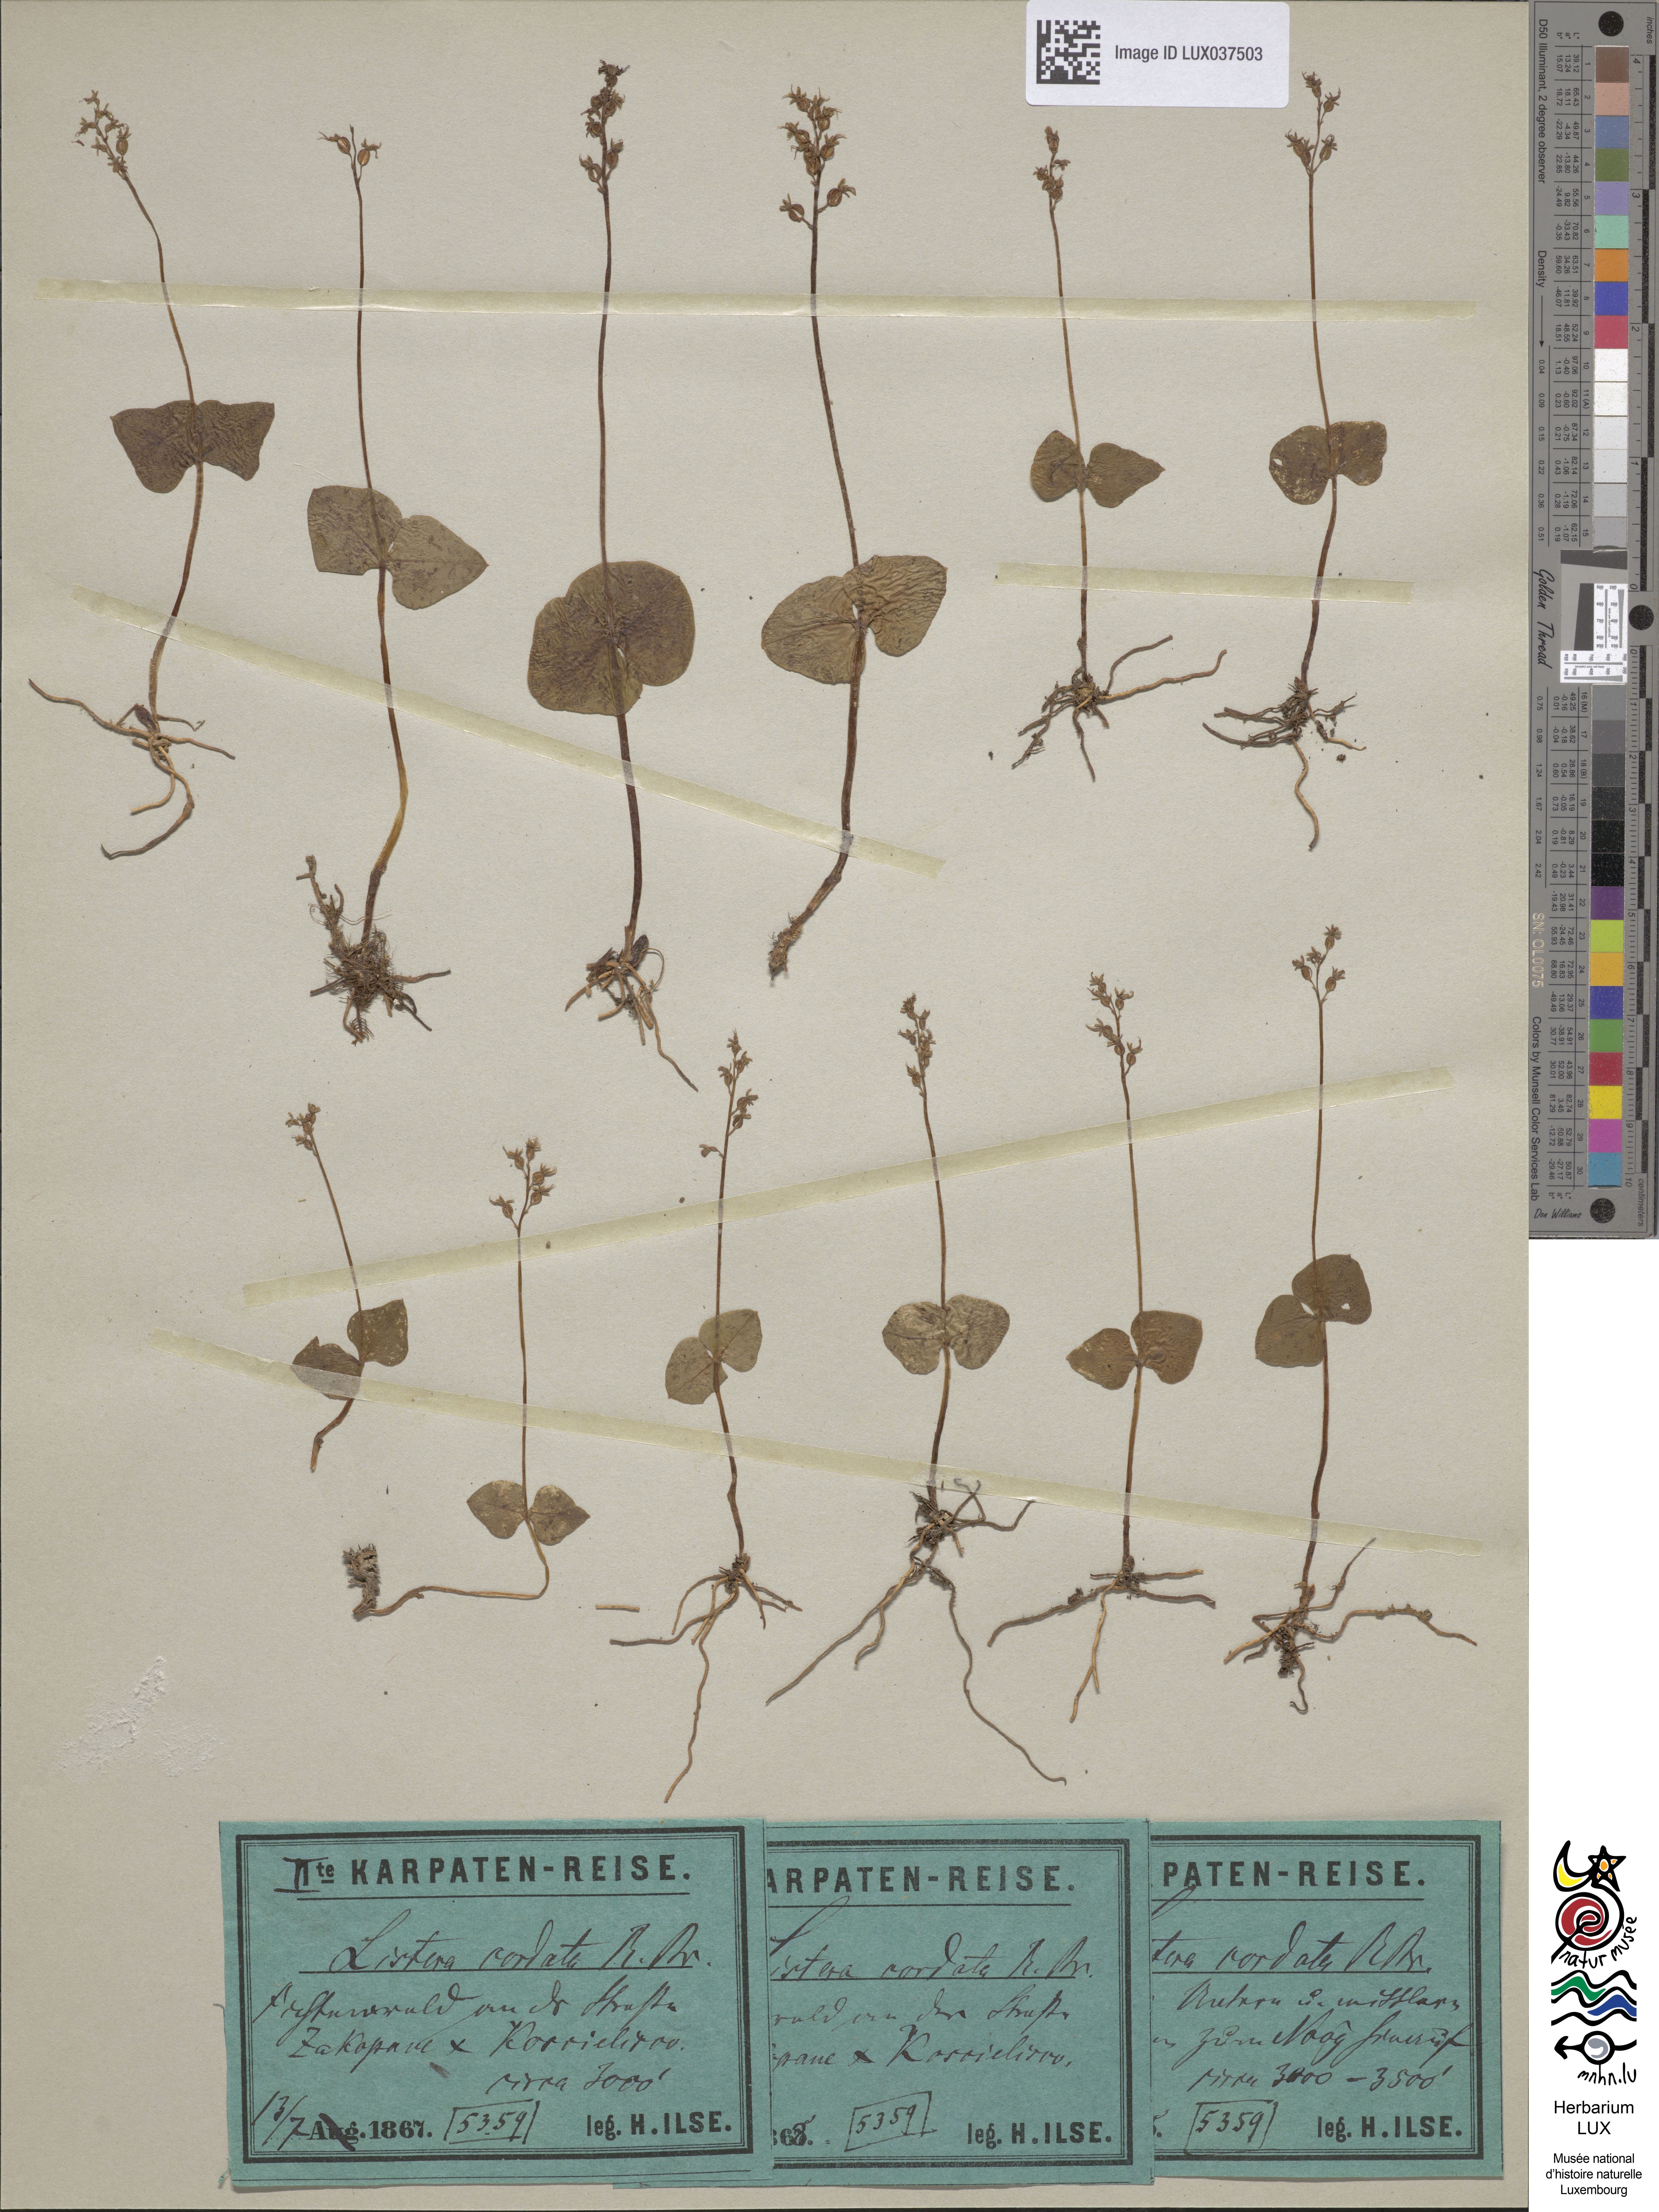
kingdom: Plantae
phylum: Tracheophyta
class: Liliopsida
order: Asparagales
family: Orchidaceae
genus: Neottia
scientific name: Neottia cordata
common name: Lesser twayblade
